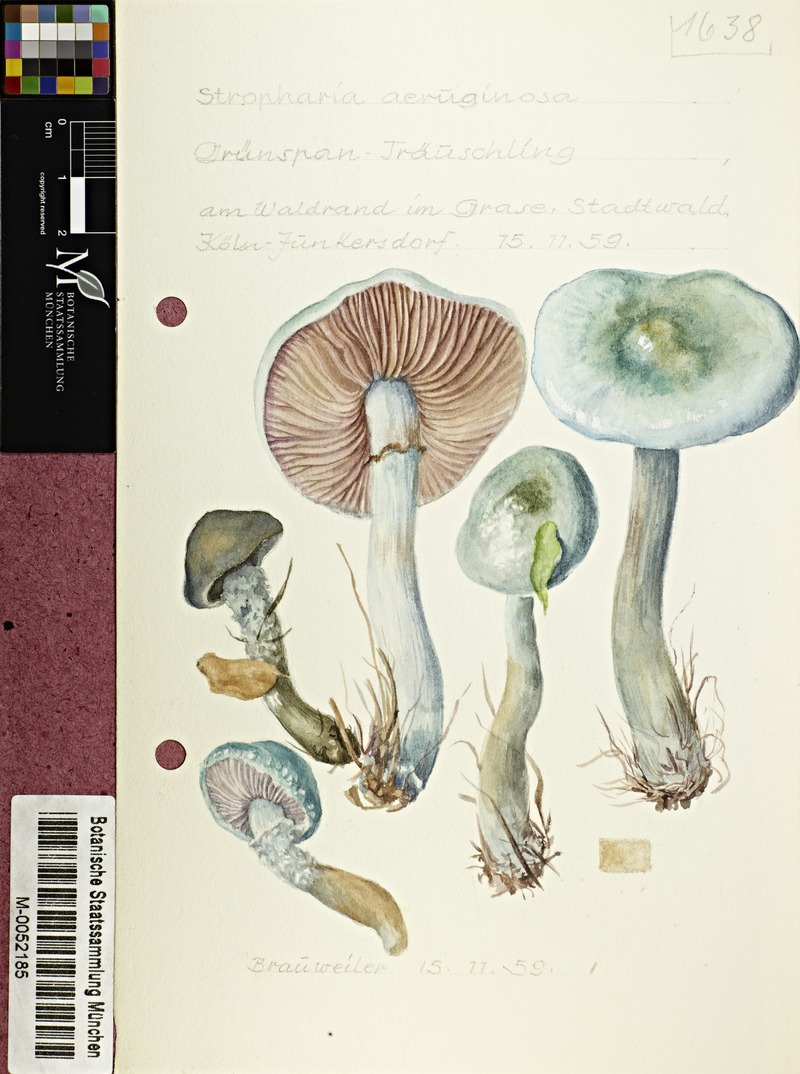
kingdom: Fungi
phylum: Basidiomycota
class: Agaricomycetes
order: Agaricales
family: Strophariaceae
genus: Stropharia
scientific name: Stropharia aeruginosa
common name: Verdigris roundhead
